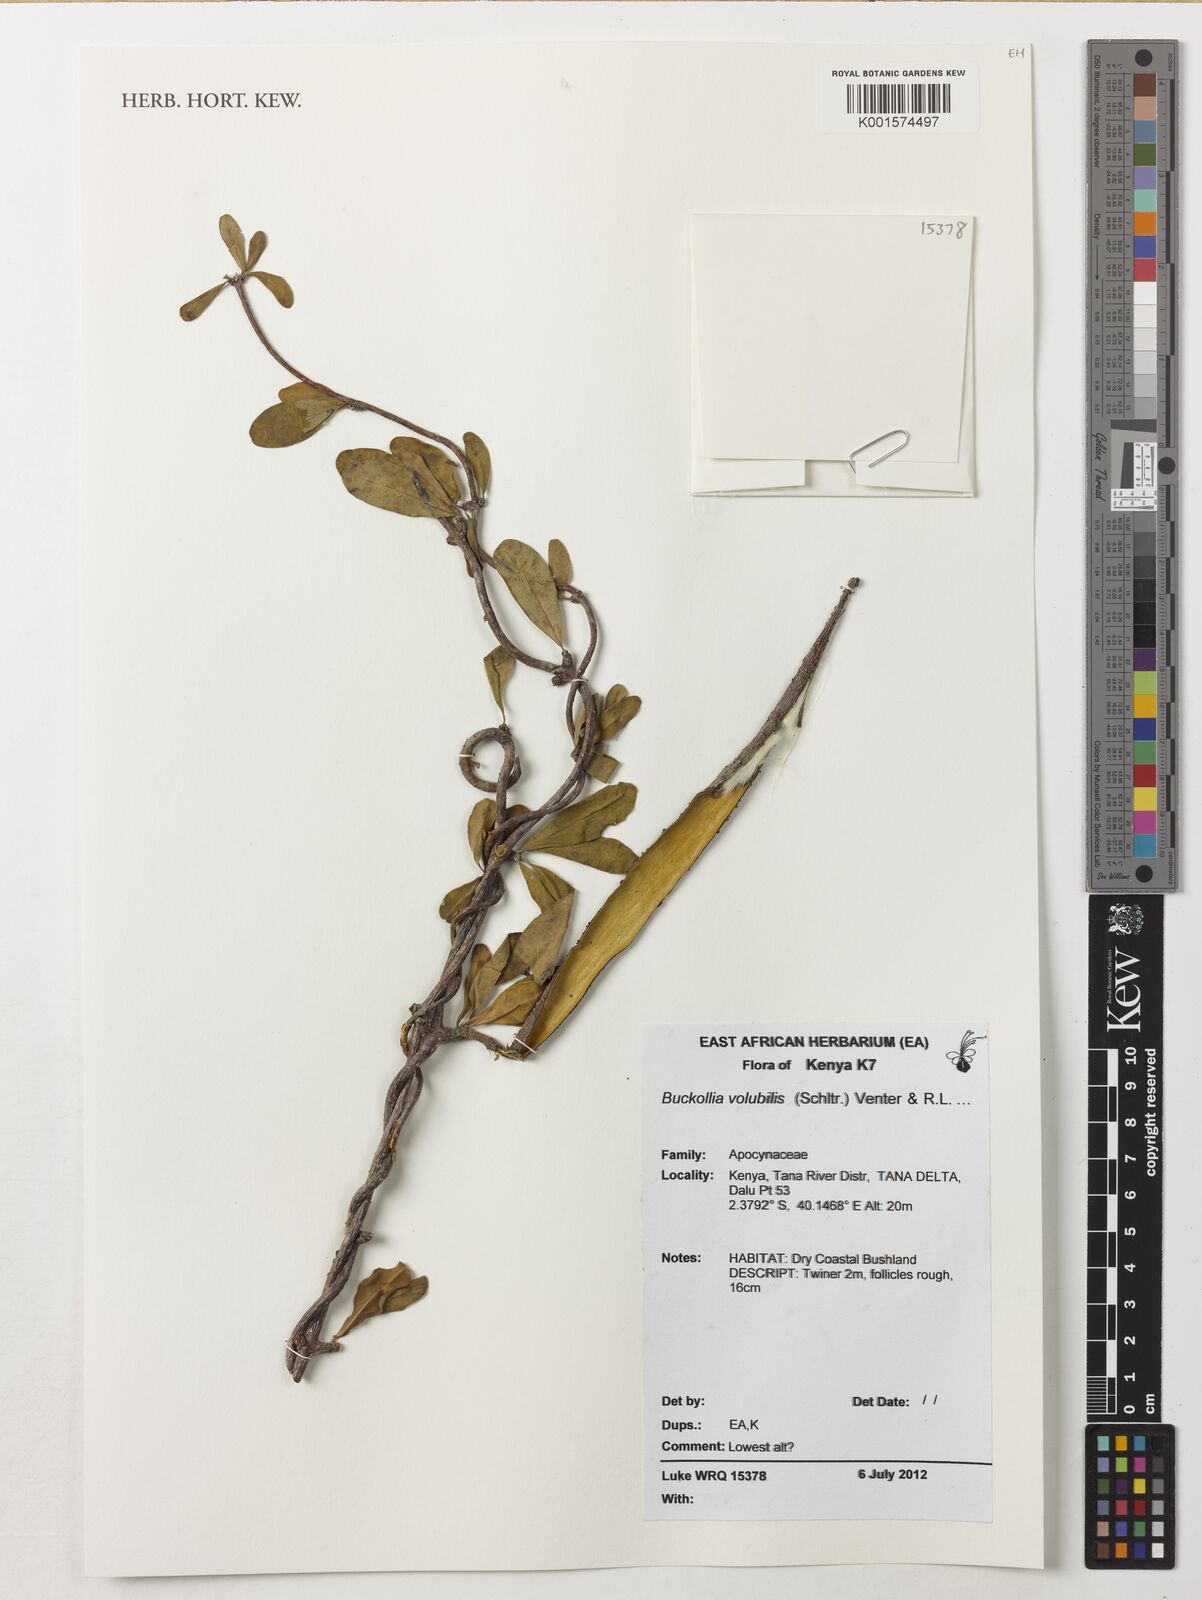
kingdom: Plantae
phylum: Tracheophyta
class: Magnoliopsida
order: Gentianales
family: Apocynaceae
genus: Buckollia
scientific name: Buckollia volubilis
